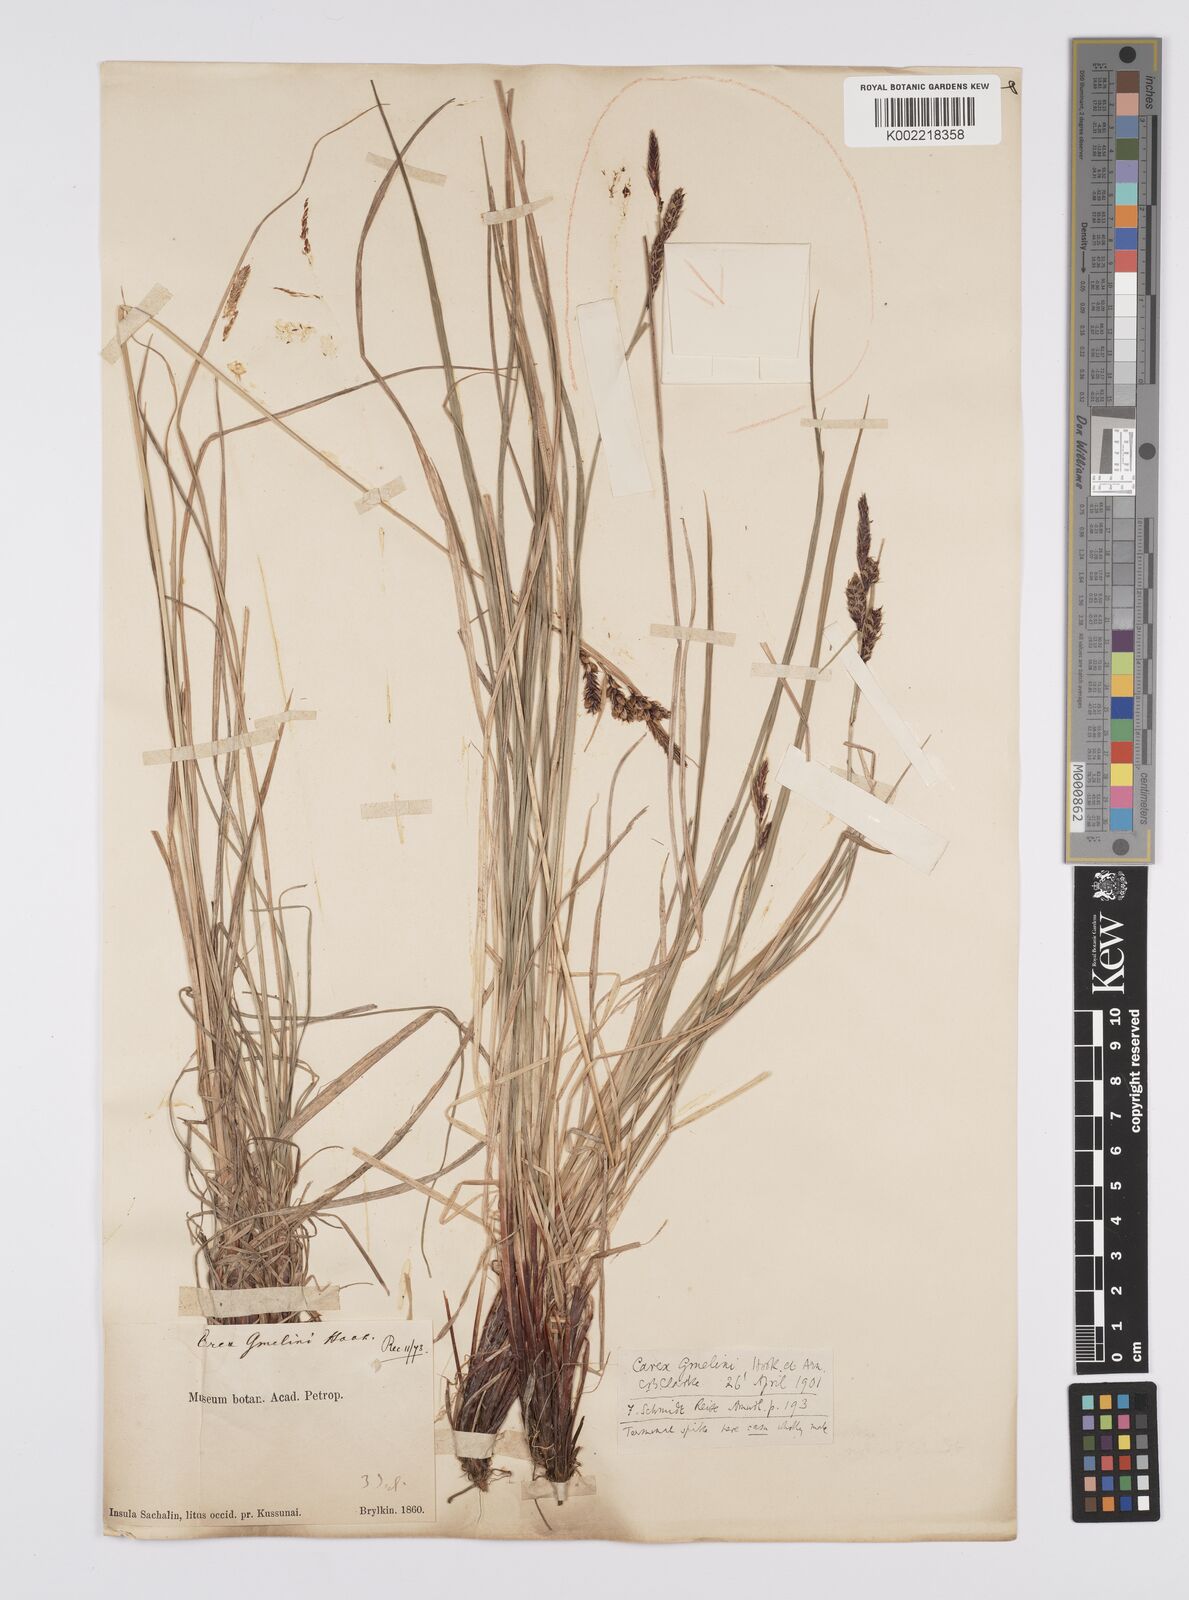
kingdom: Plantae
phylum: Tracheophyta
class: Liliopsida
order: Poales
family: Cyperaceae
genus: Carex
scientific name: Carex gmelinii
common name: Gmelin's sedge
